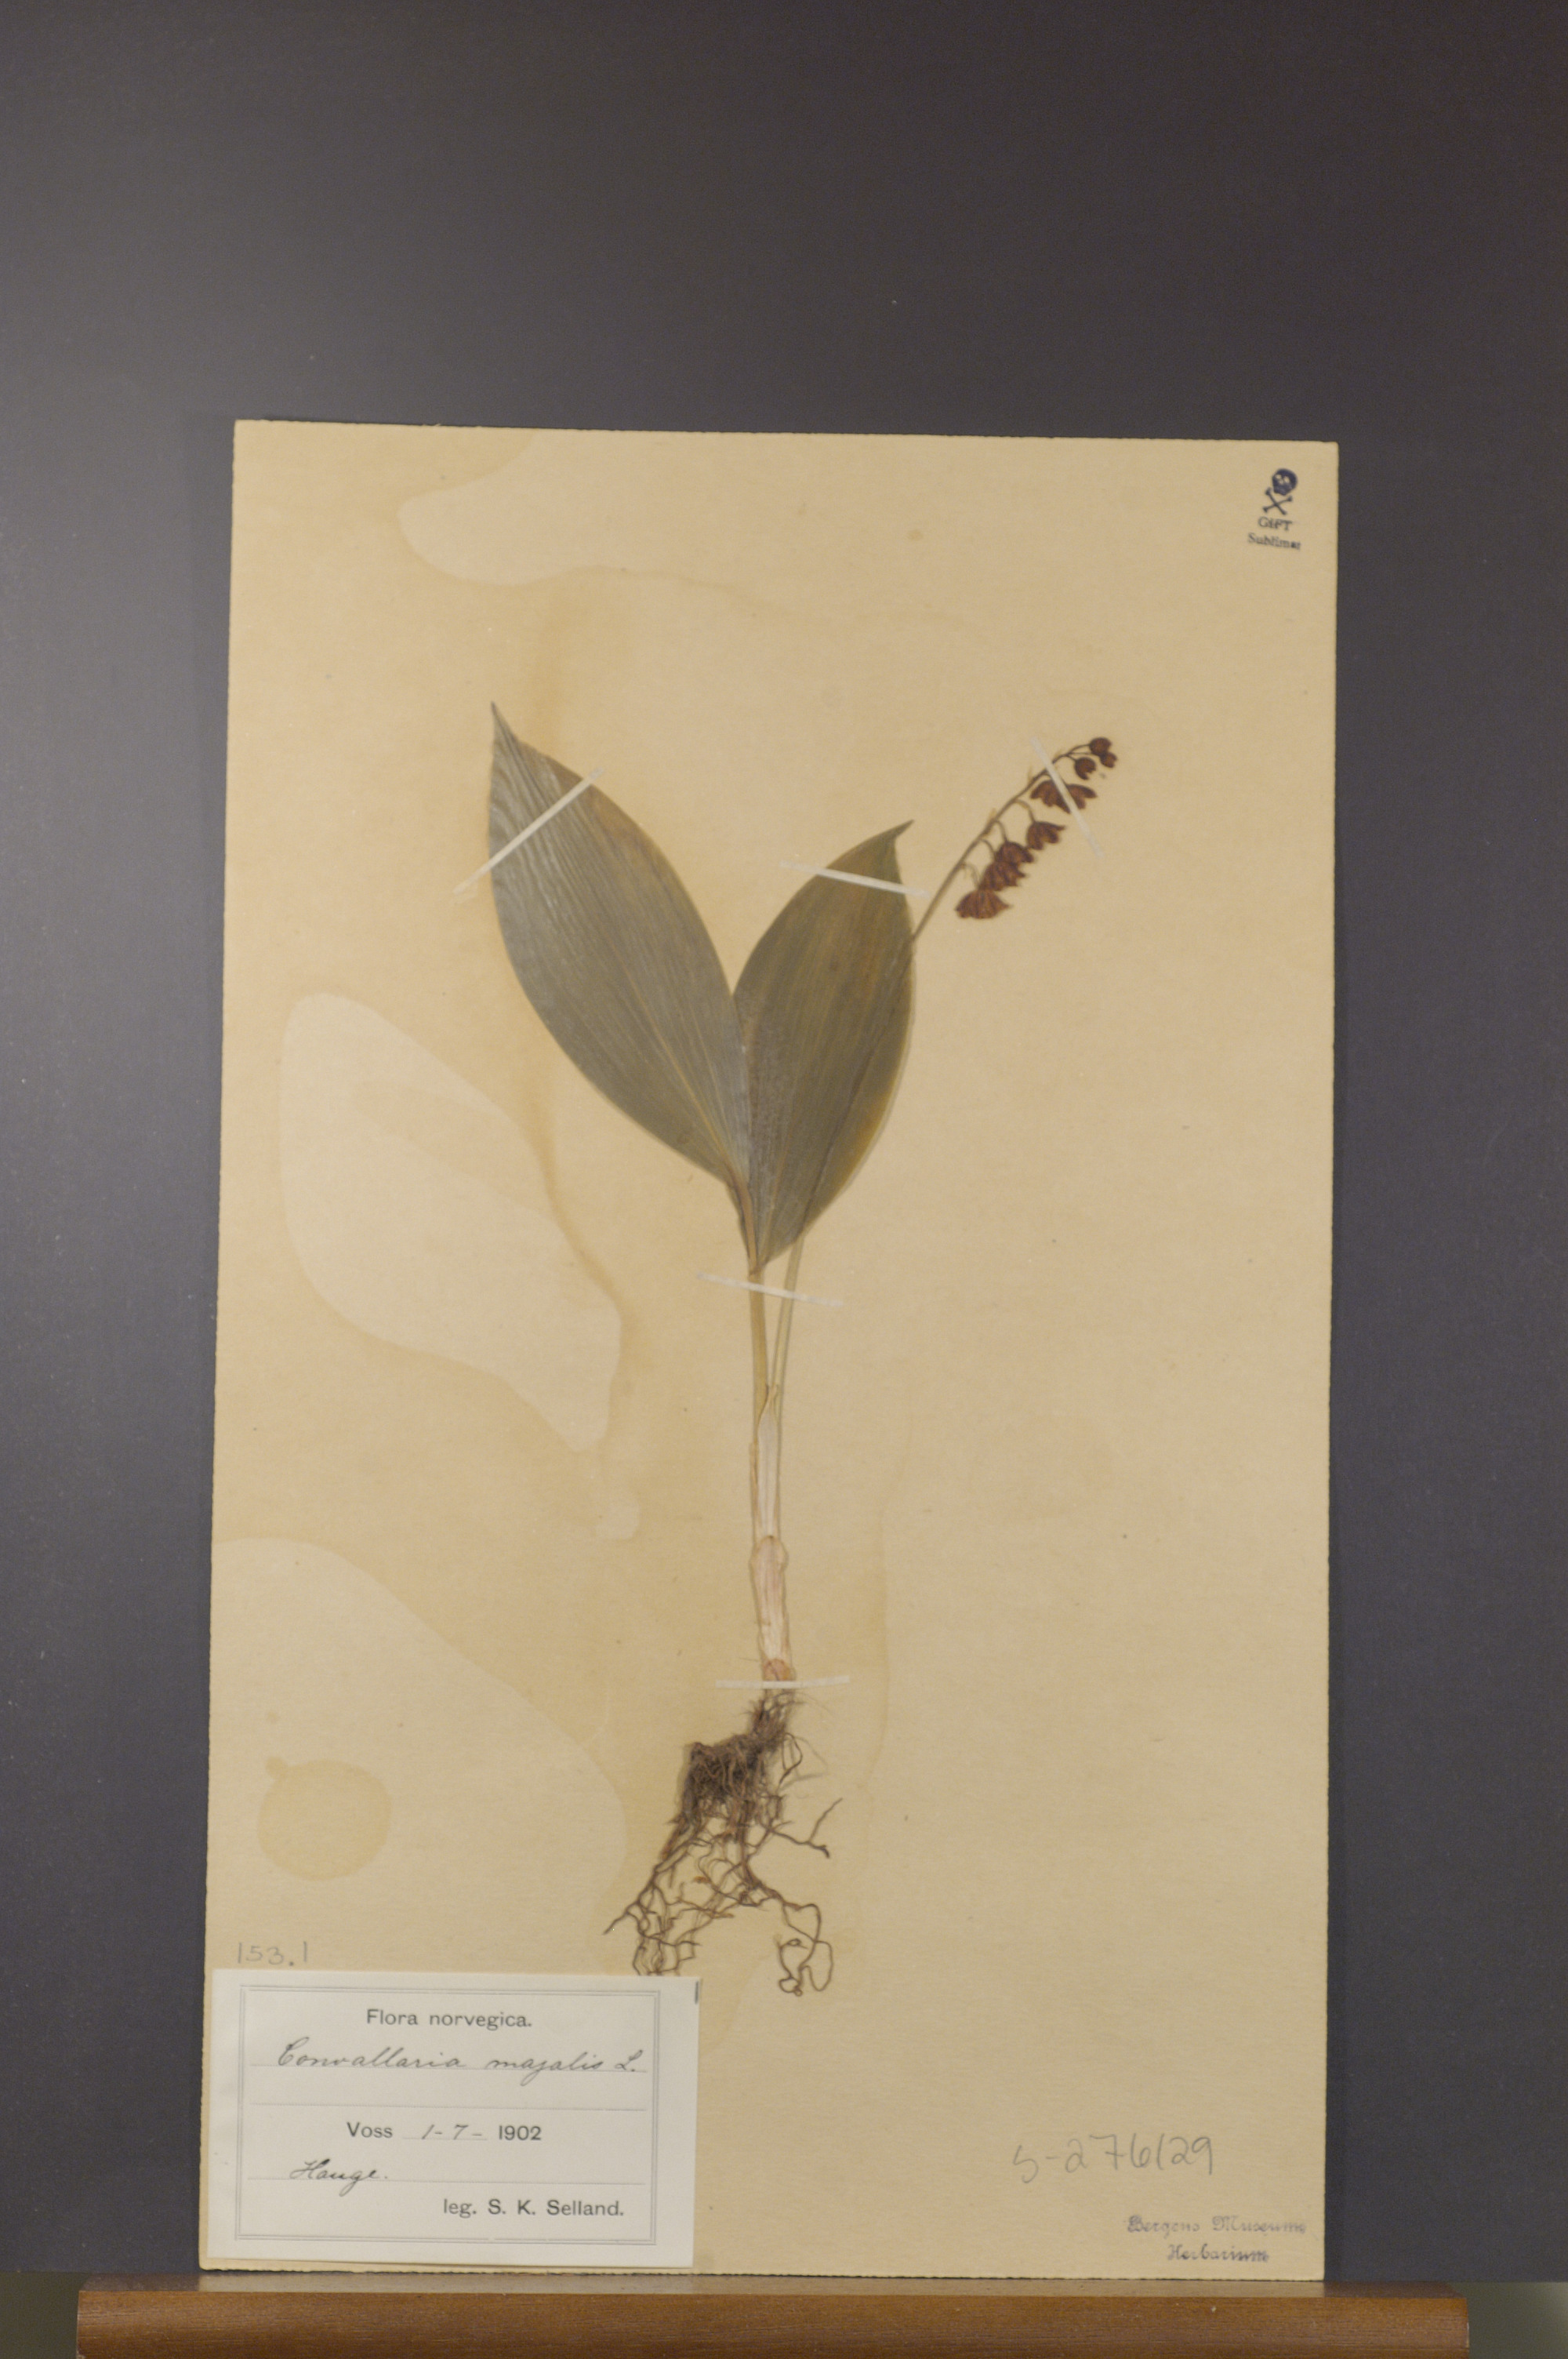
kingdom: Plantae
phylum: Tracheophyta
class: Liliopsida
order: Asparagales
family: Asparagaceae
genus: Convallaria
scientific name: Convallaria majalis
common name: Lily-of-the-valley
